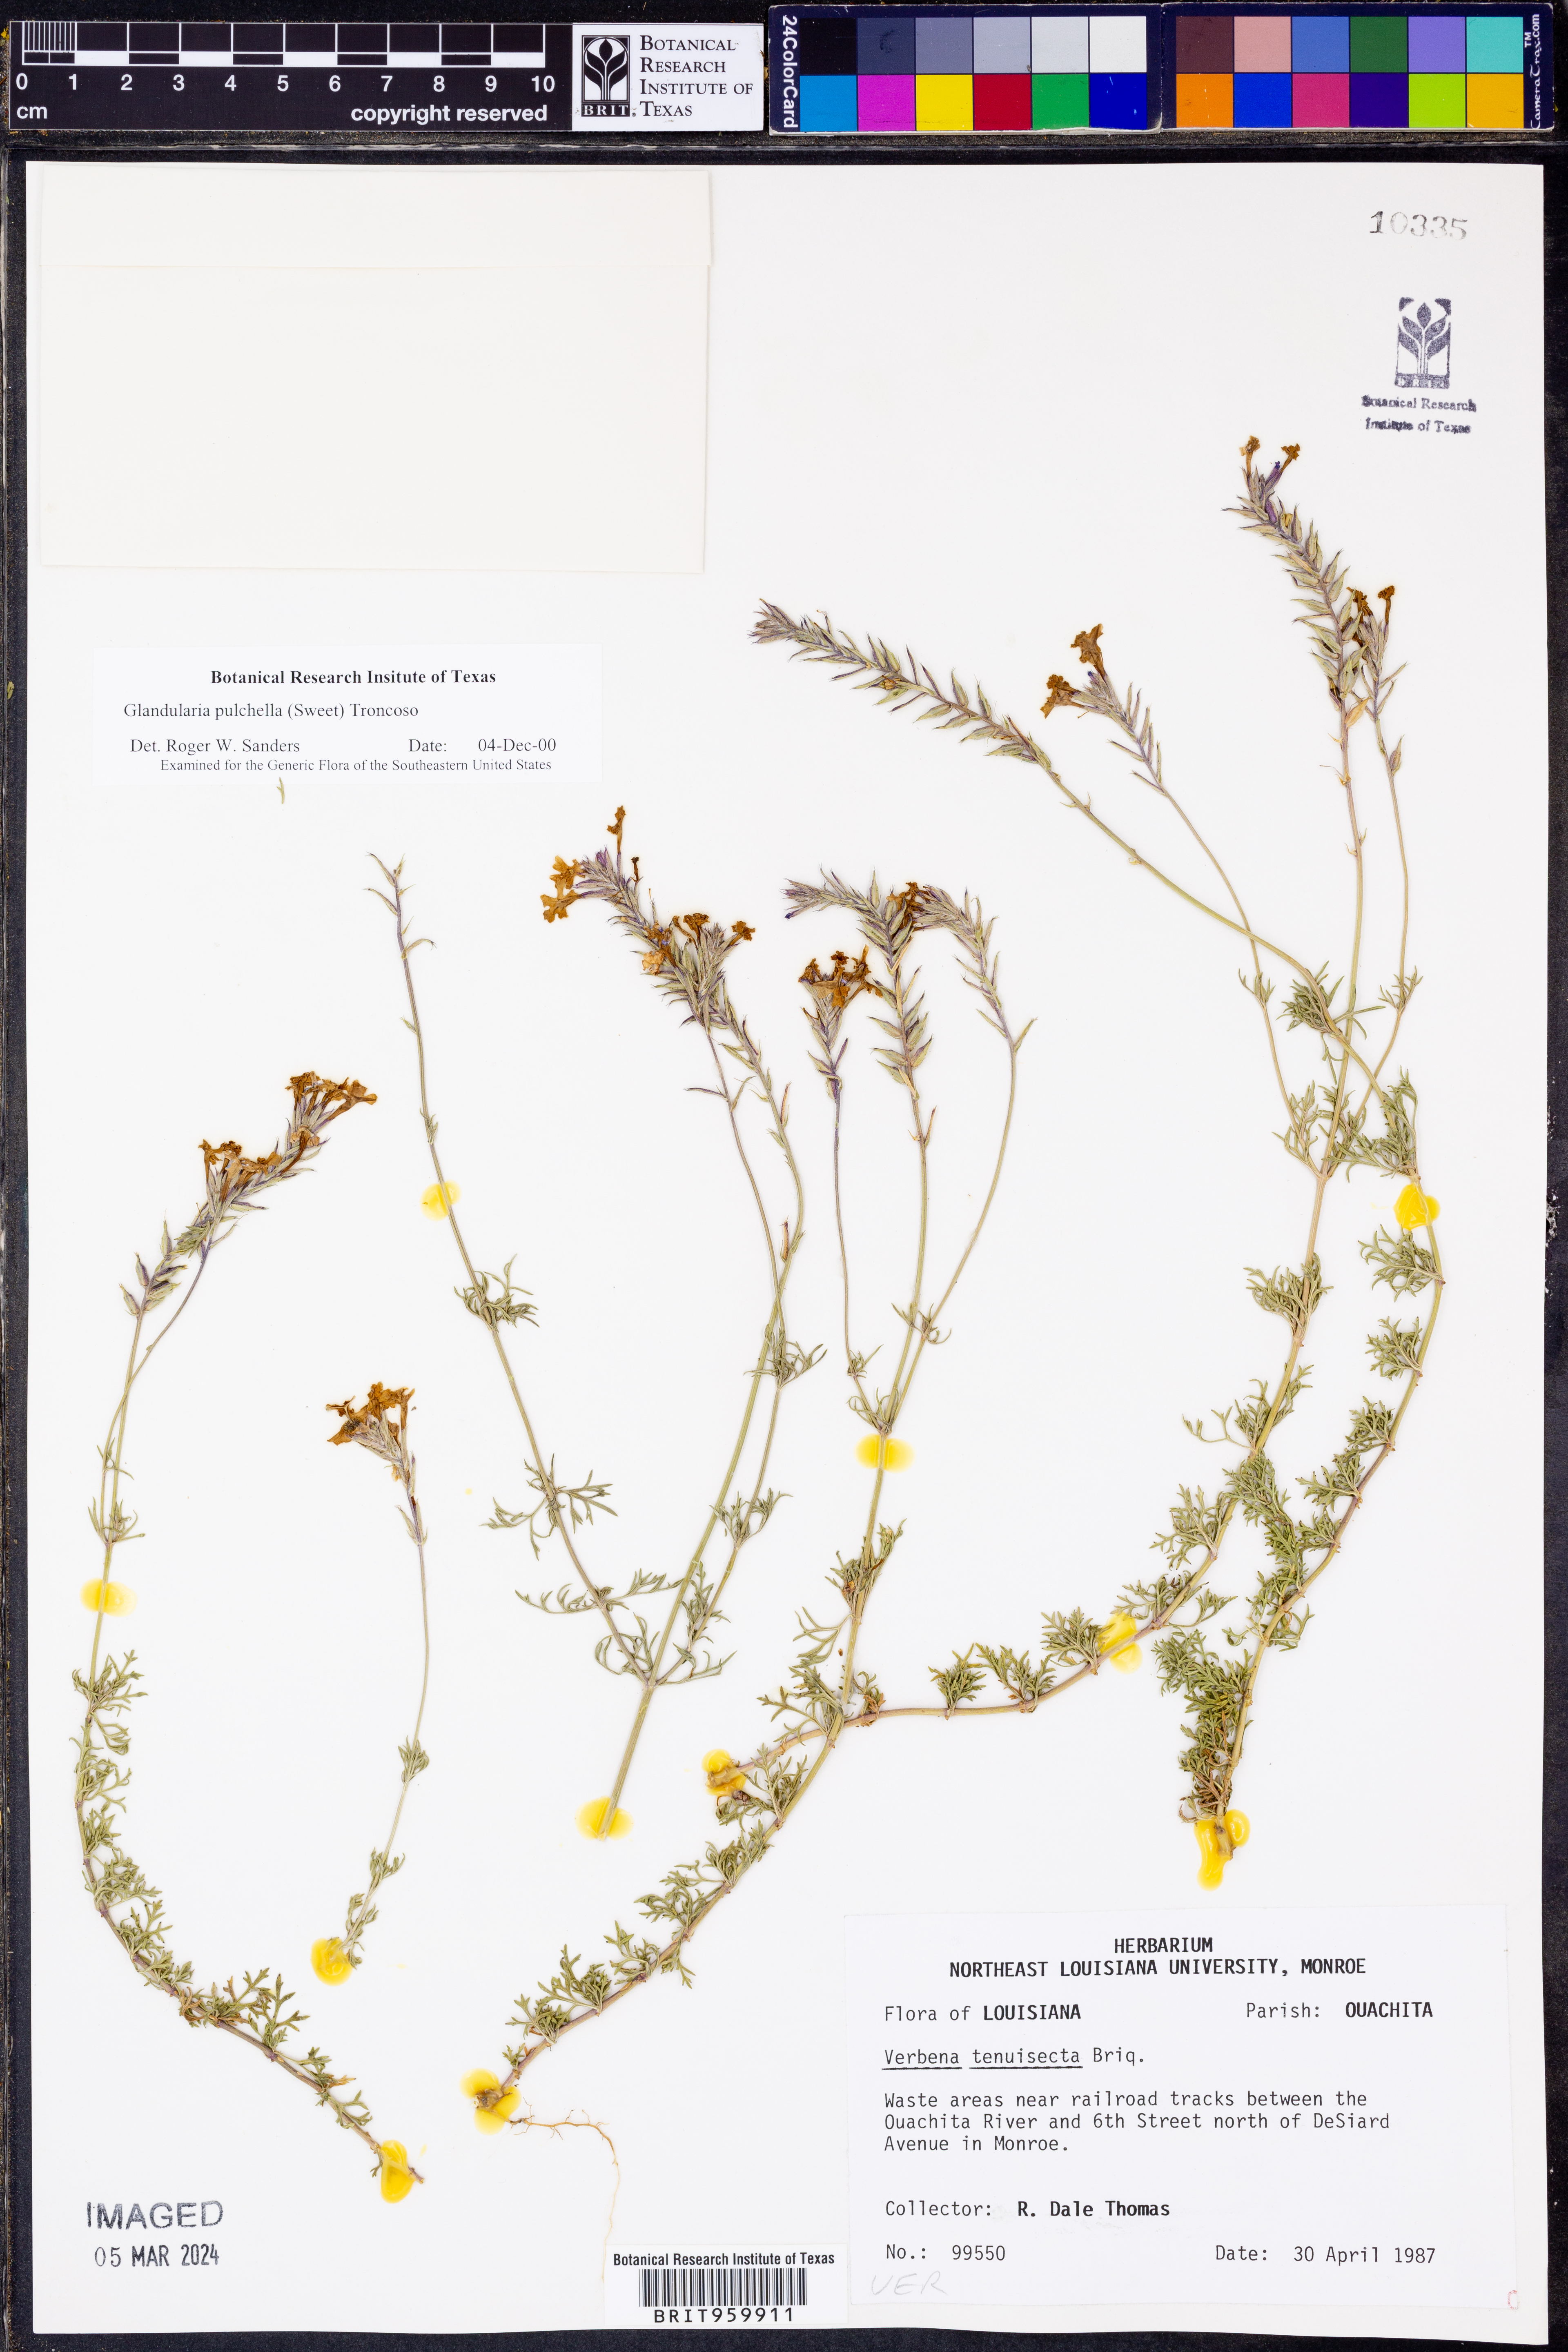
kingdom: Plantae
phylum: Tracheophyta
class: Magnoliopsida
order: Lamiales
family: Verbenaceae
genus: Verbena
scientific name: Verbena tenera
